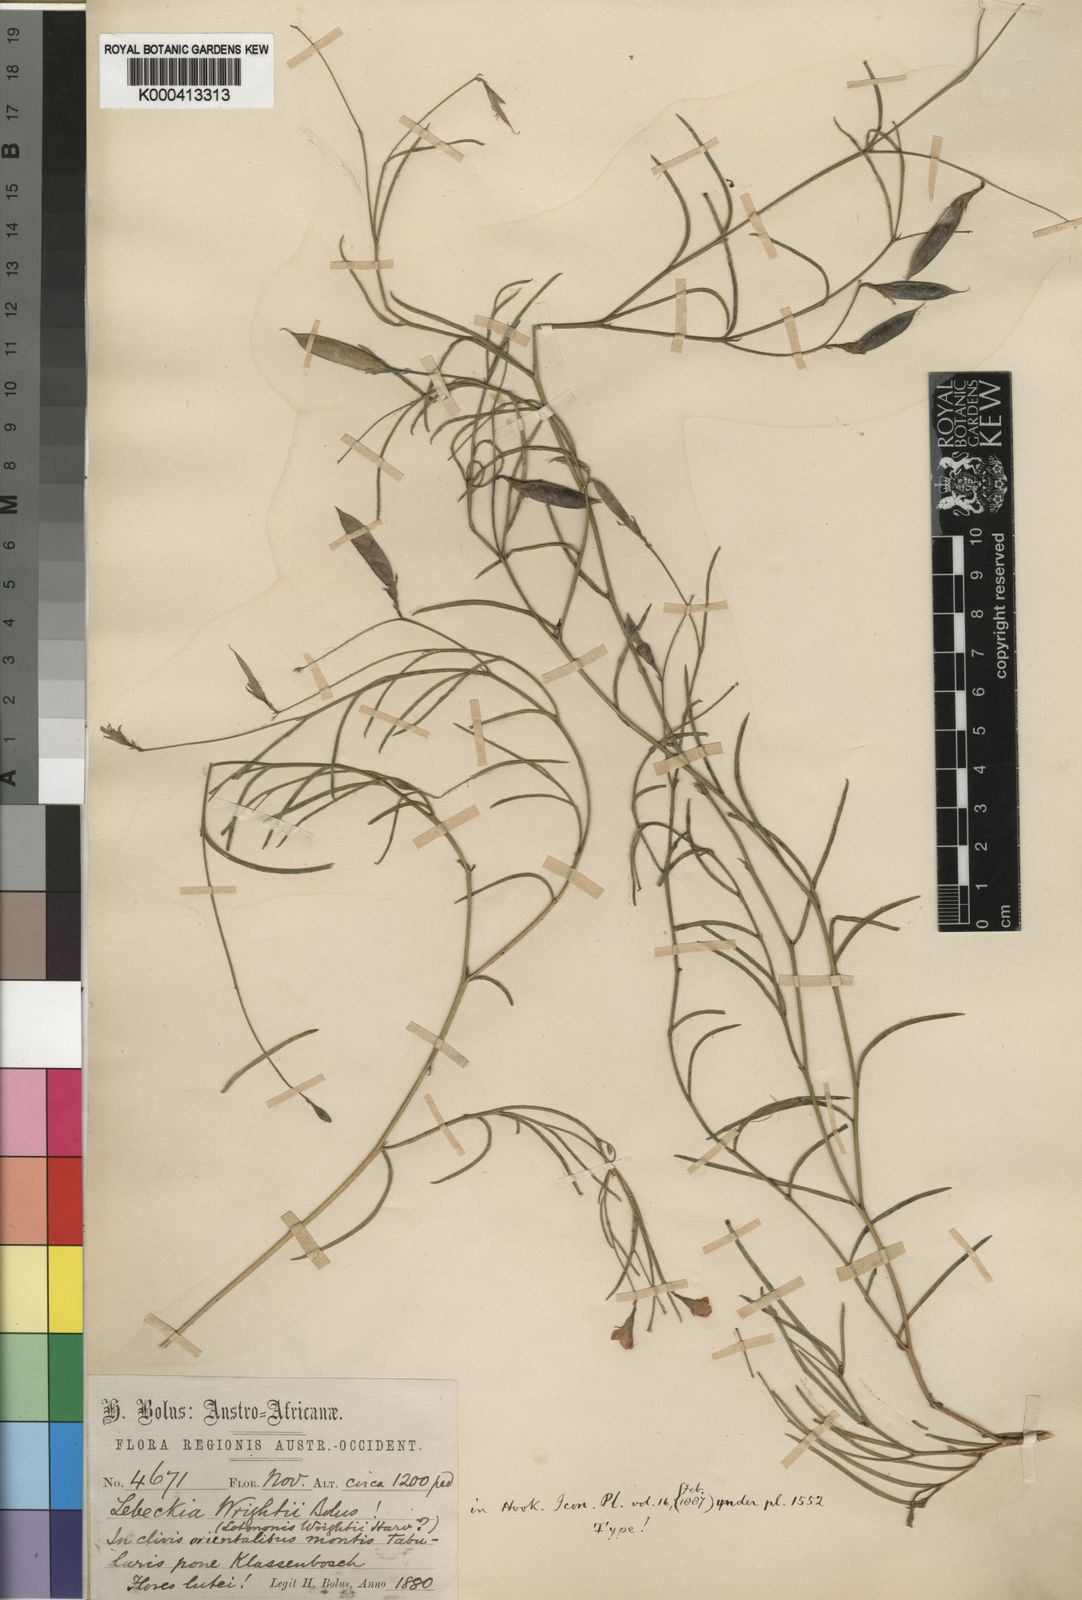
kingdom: Plantae
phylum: Tracheophyta
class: Magnoliopsida
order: Fabales
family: Fabaceae
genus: Lebeckia
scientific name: Lebeckia wrightii
